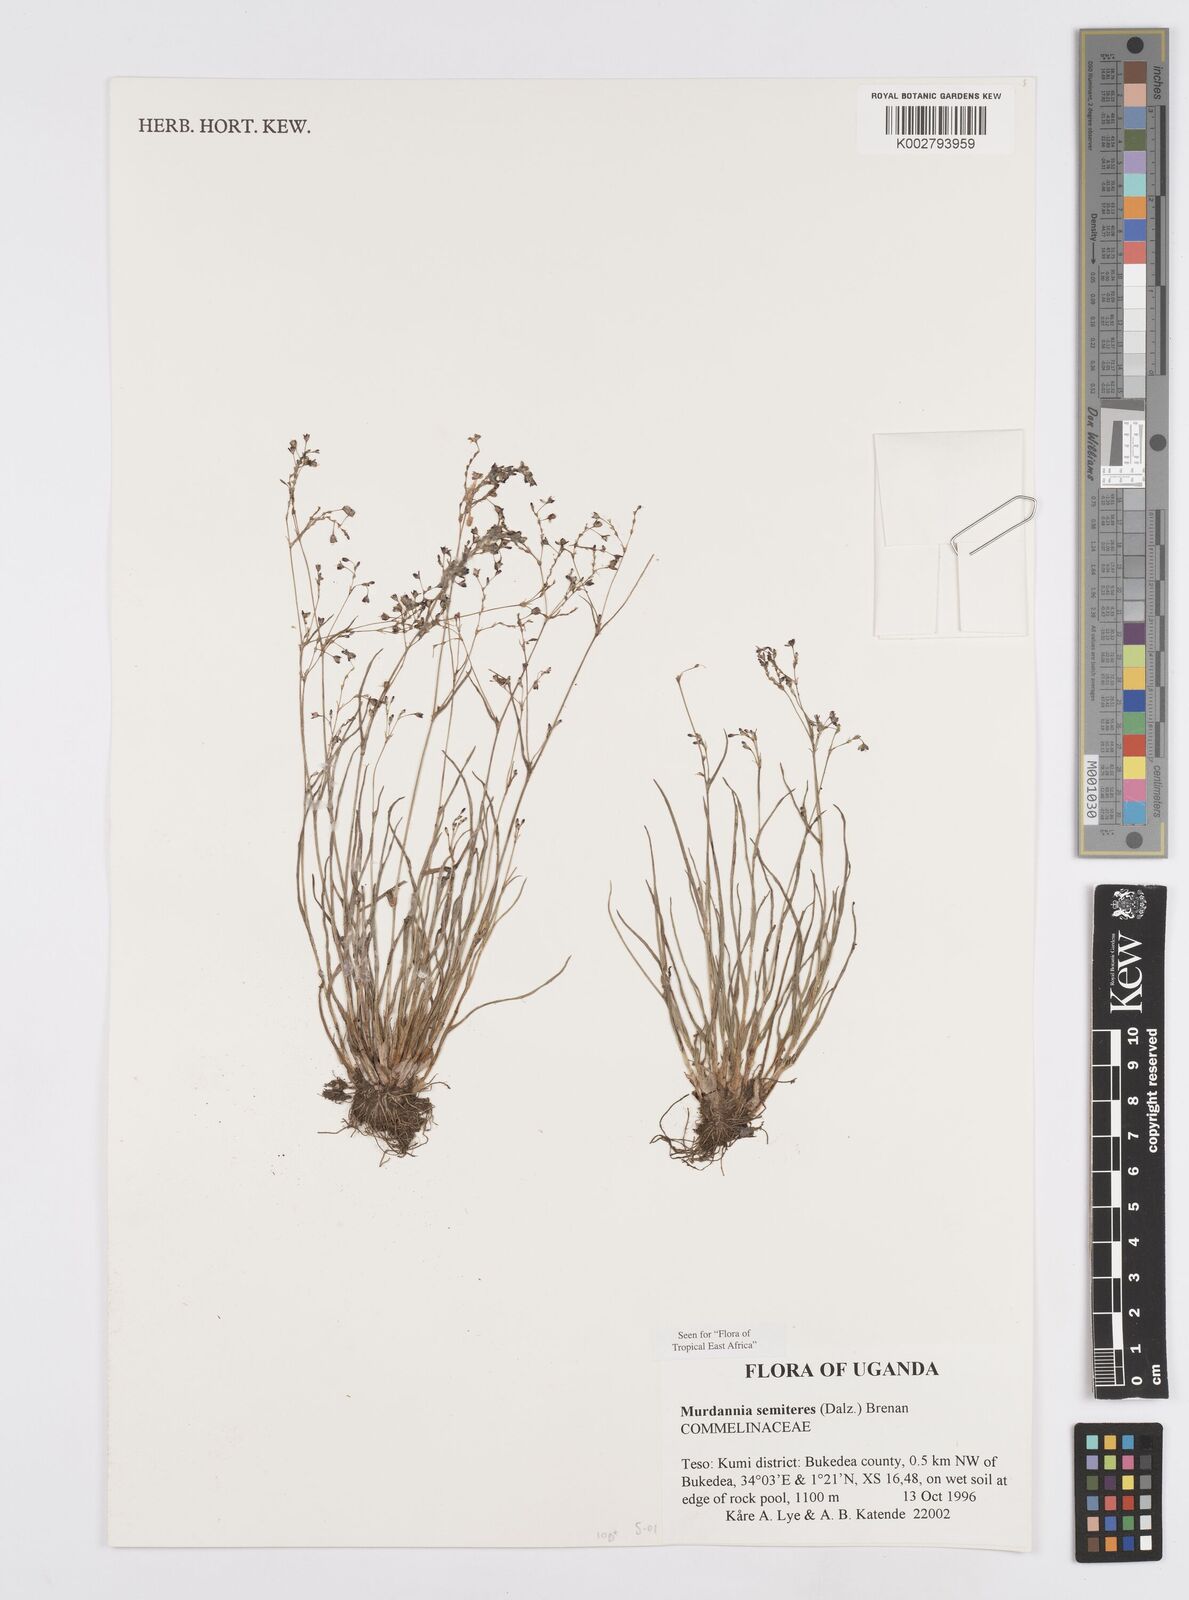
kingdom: Plantae
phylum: Tracheophyta
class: Liliopsida
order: Commelinales
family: Commelinaceae
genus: Murdannia
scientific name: Murdannia semiteres
